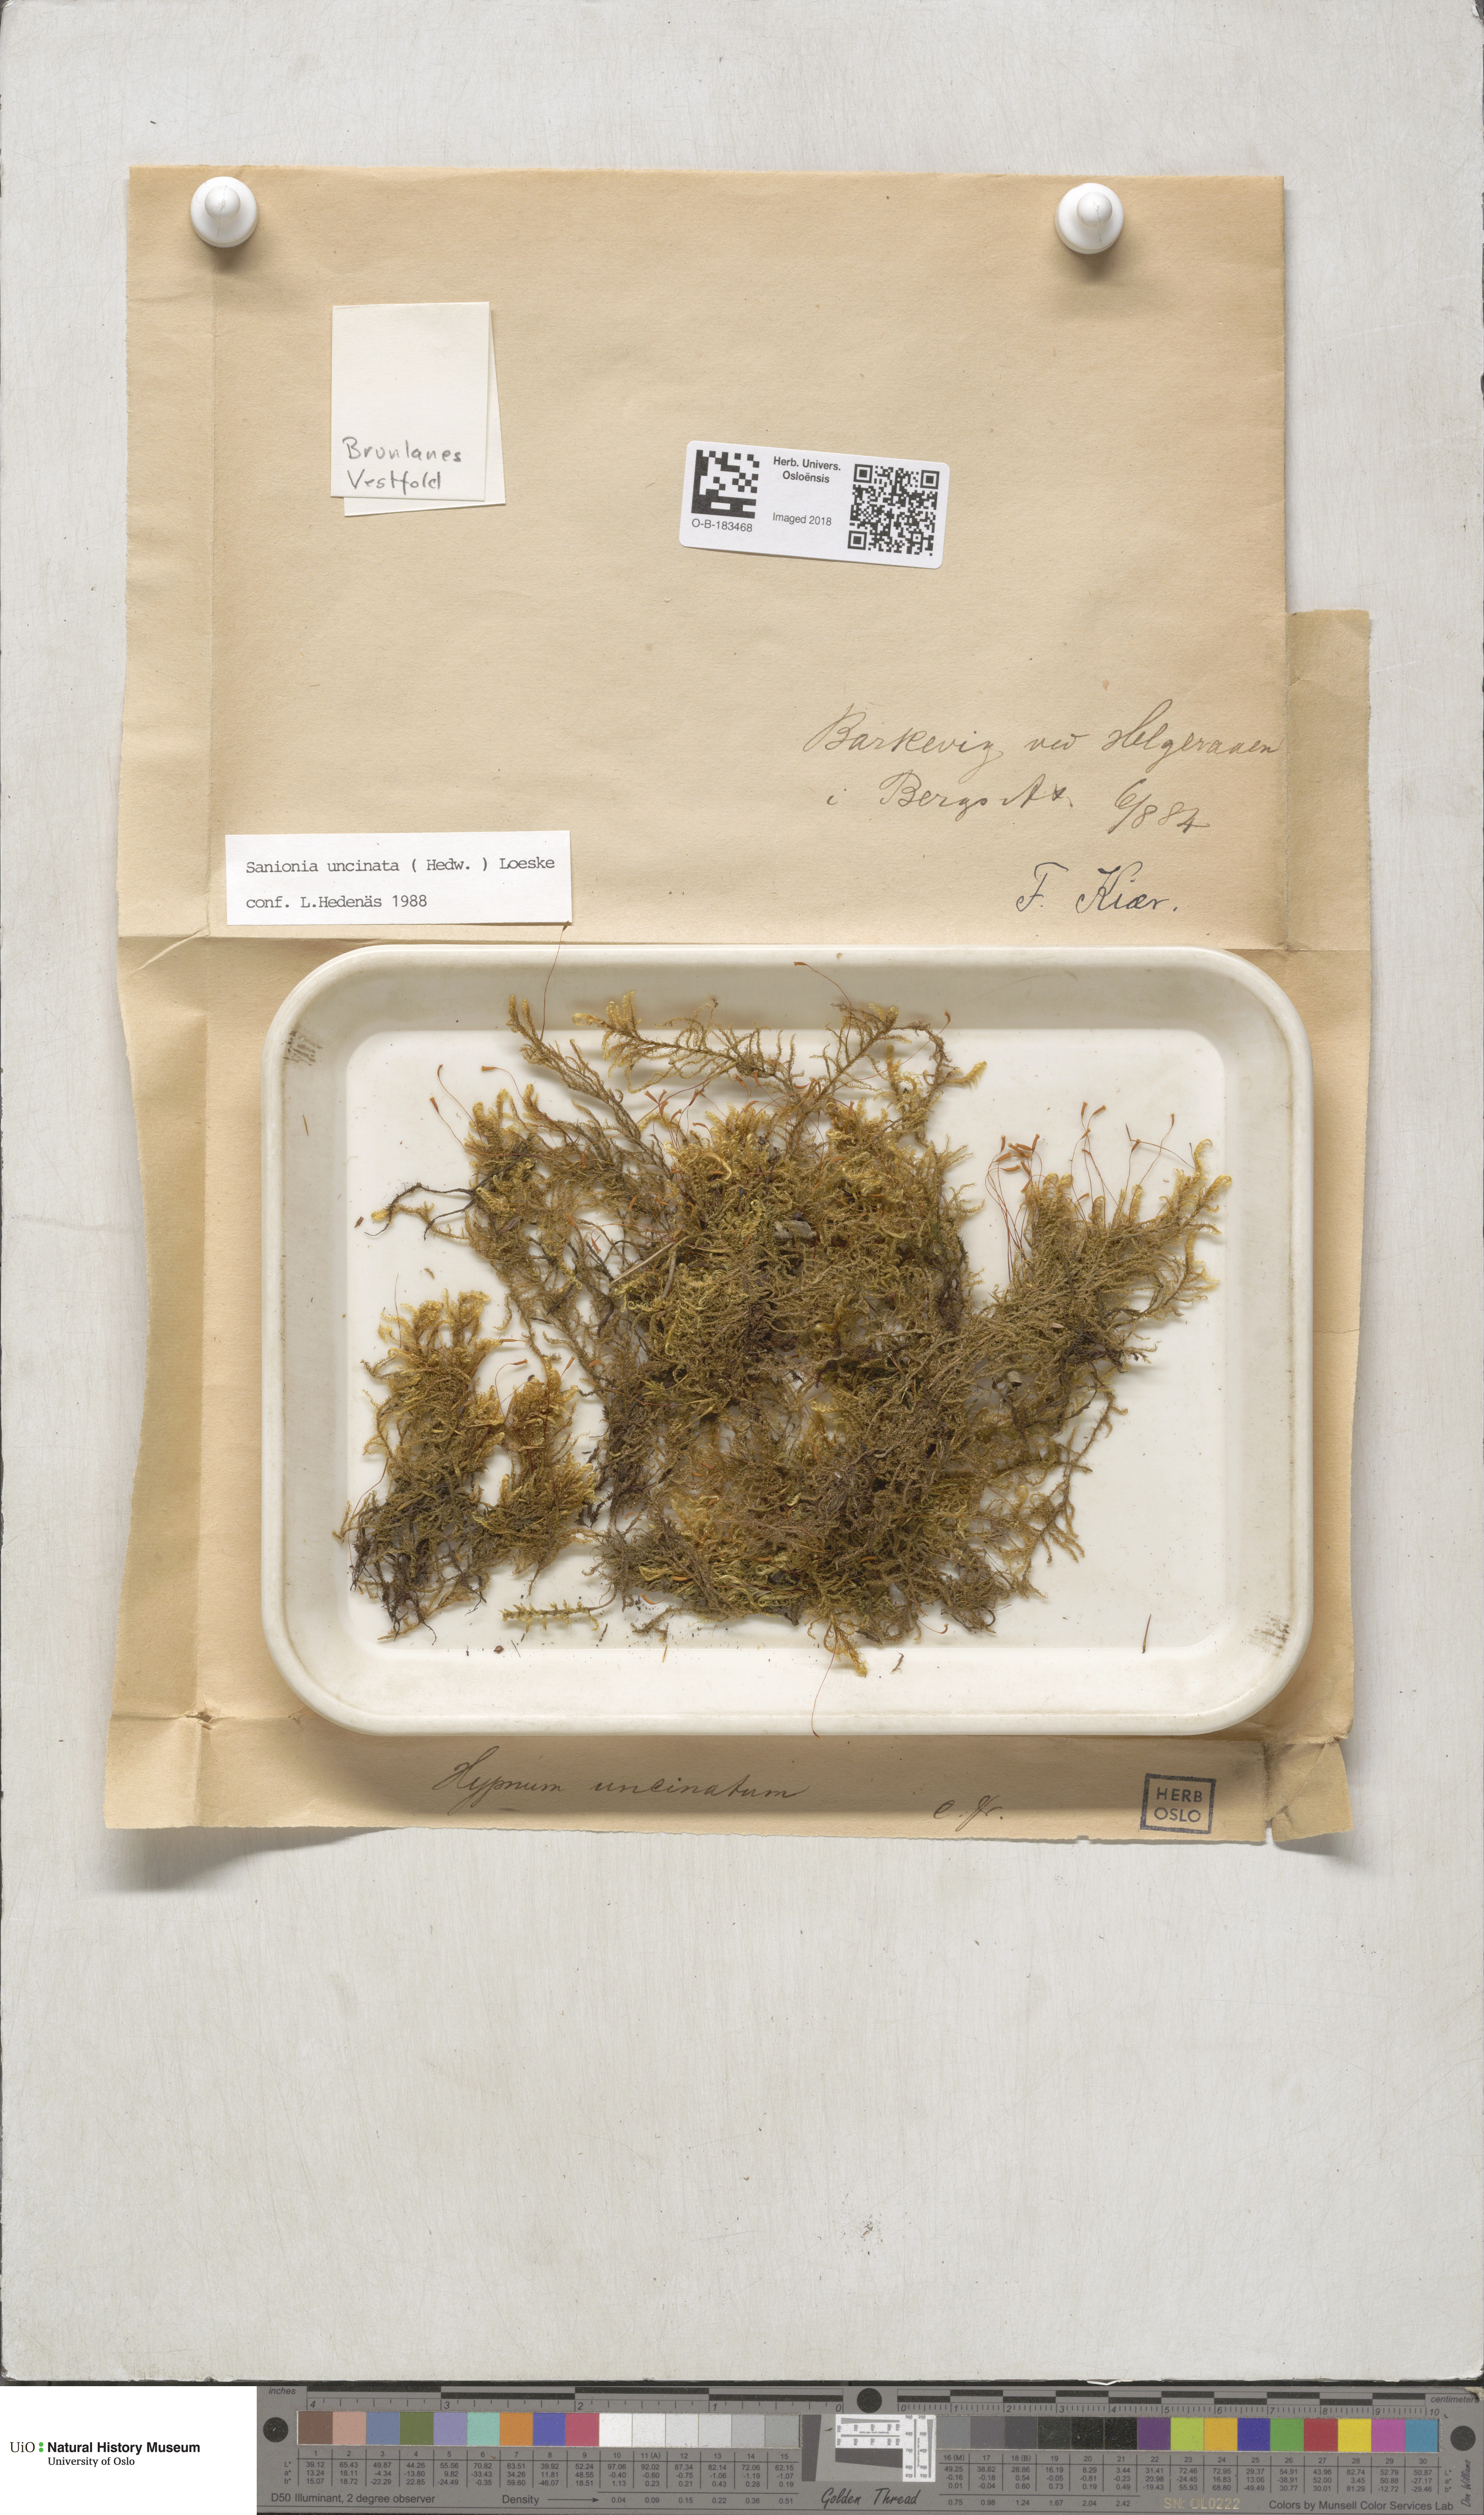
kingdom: Plantae
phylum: Bryophyta
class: Bryopsida
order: Hypnales
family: Scorpidiaceae
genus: Sanionia
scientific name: Sanionia uncinata
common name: Sickle moss
